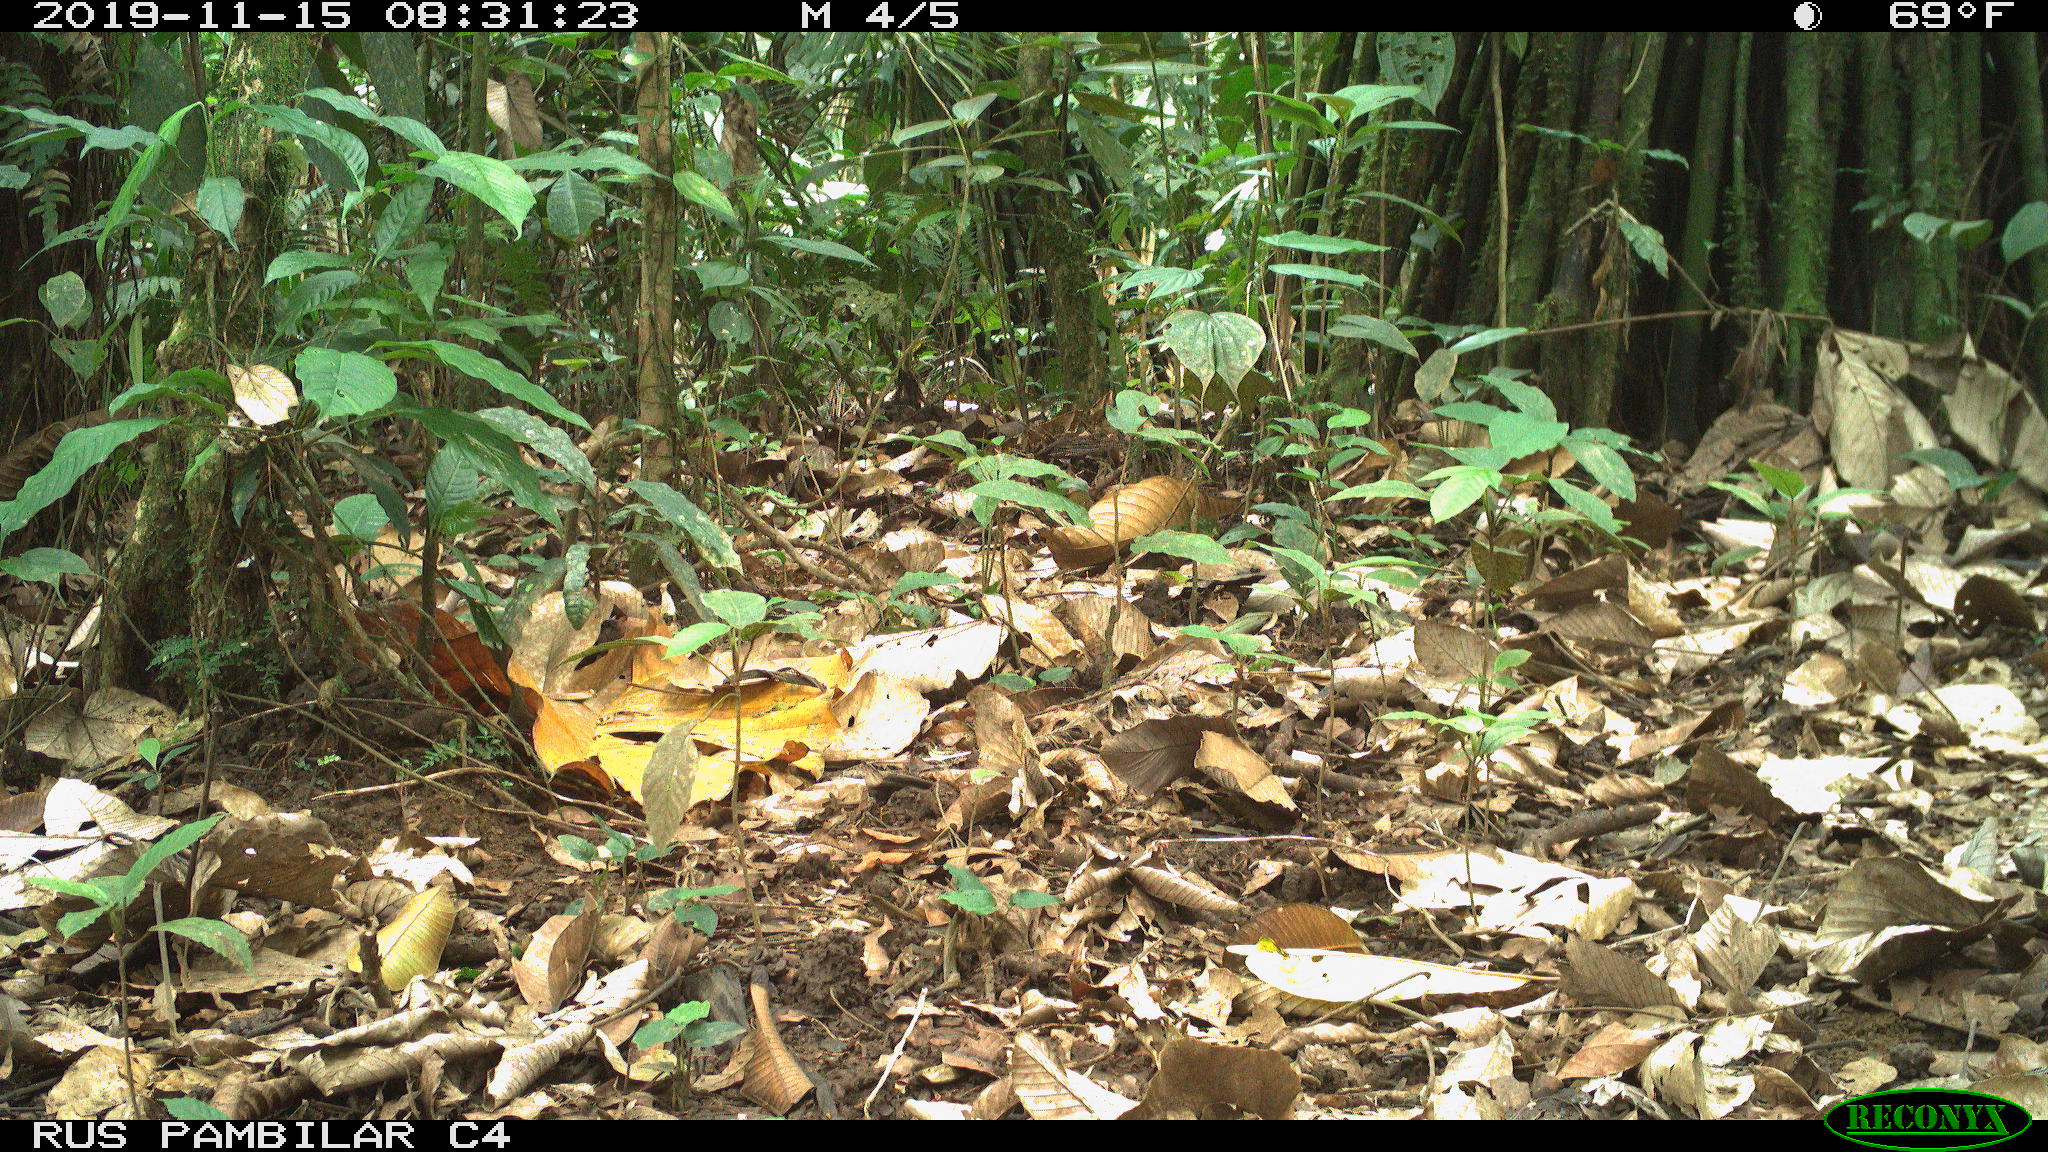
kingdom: Animalia
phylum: Chordata
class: Mammalia
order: Artiodactyla
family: Tayassuidae
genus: Tayassu
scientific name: Tayassu pecari
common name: White-lipped peccary
